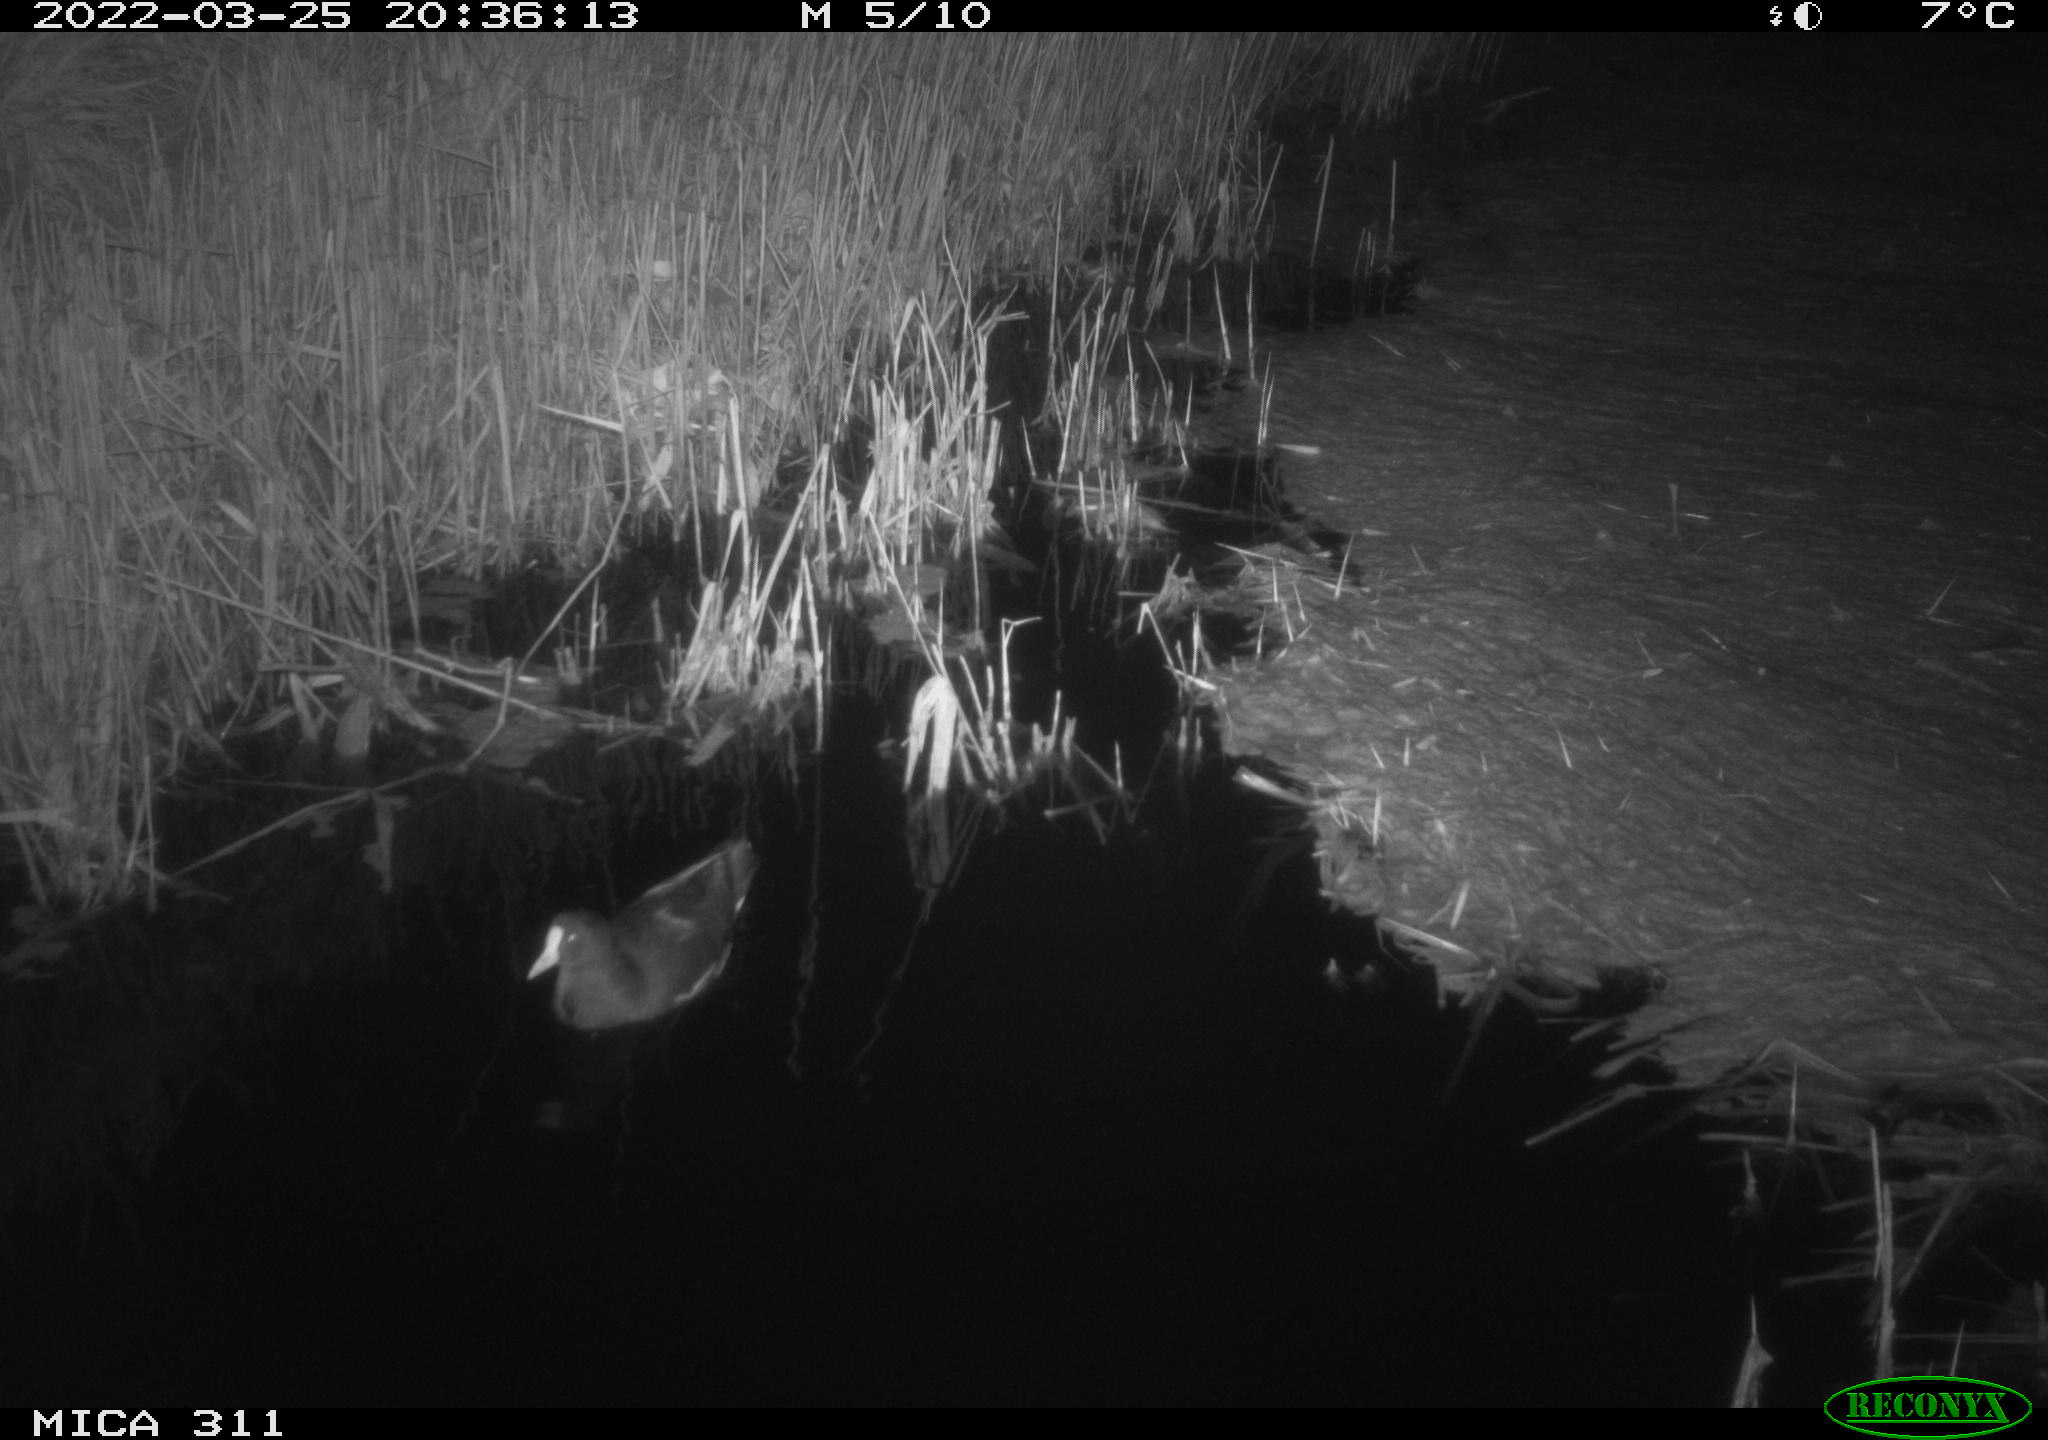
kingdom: Animalia
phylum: Chordata
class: Aves
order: Gruiformes
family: Rallidae
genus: Gallinula
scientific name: Gallinula chloropus
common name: Common moorhen
